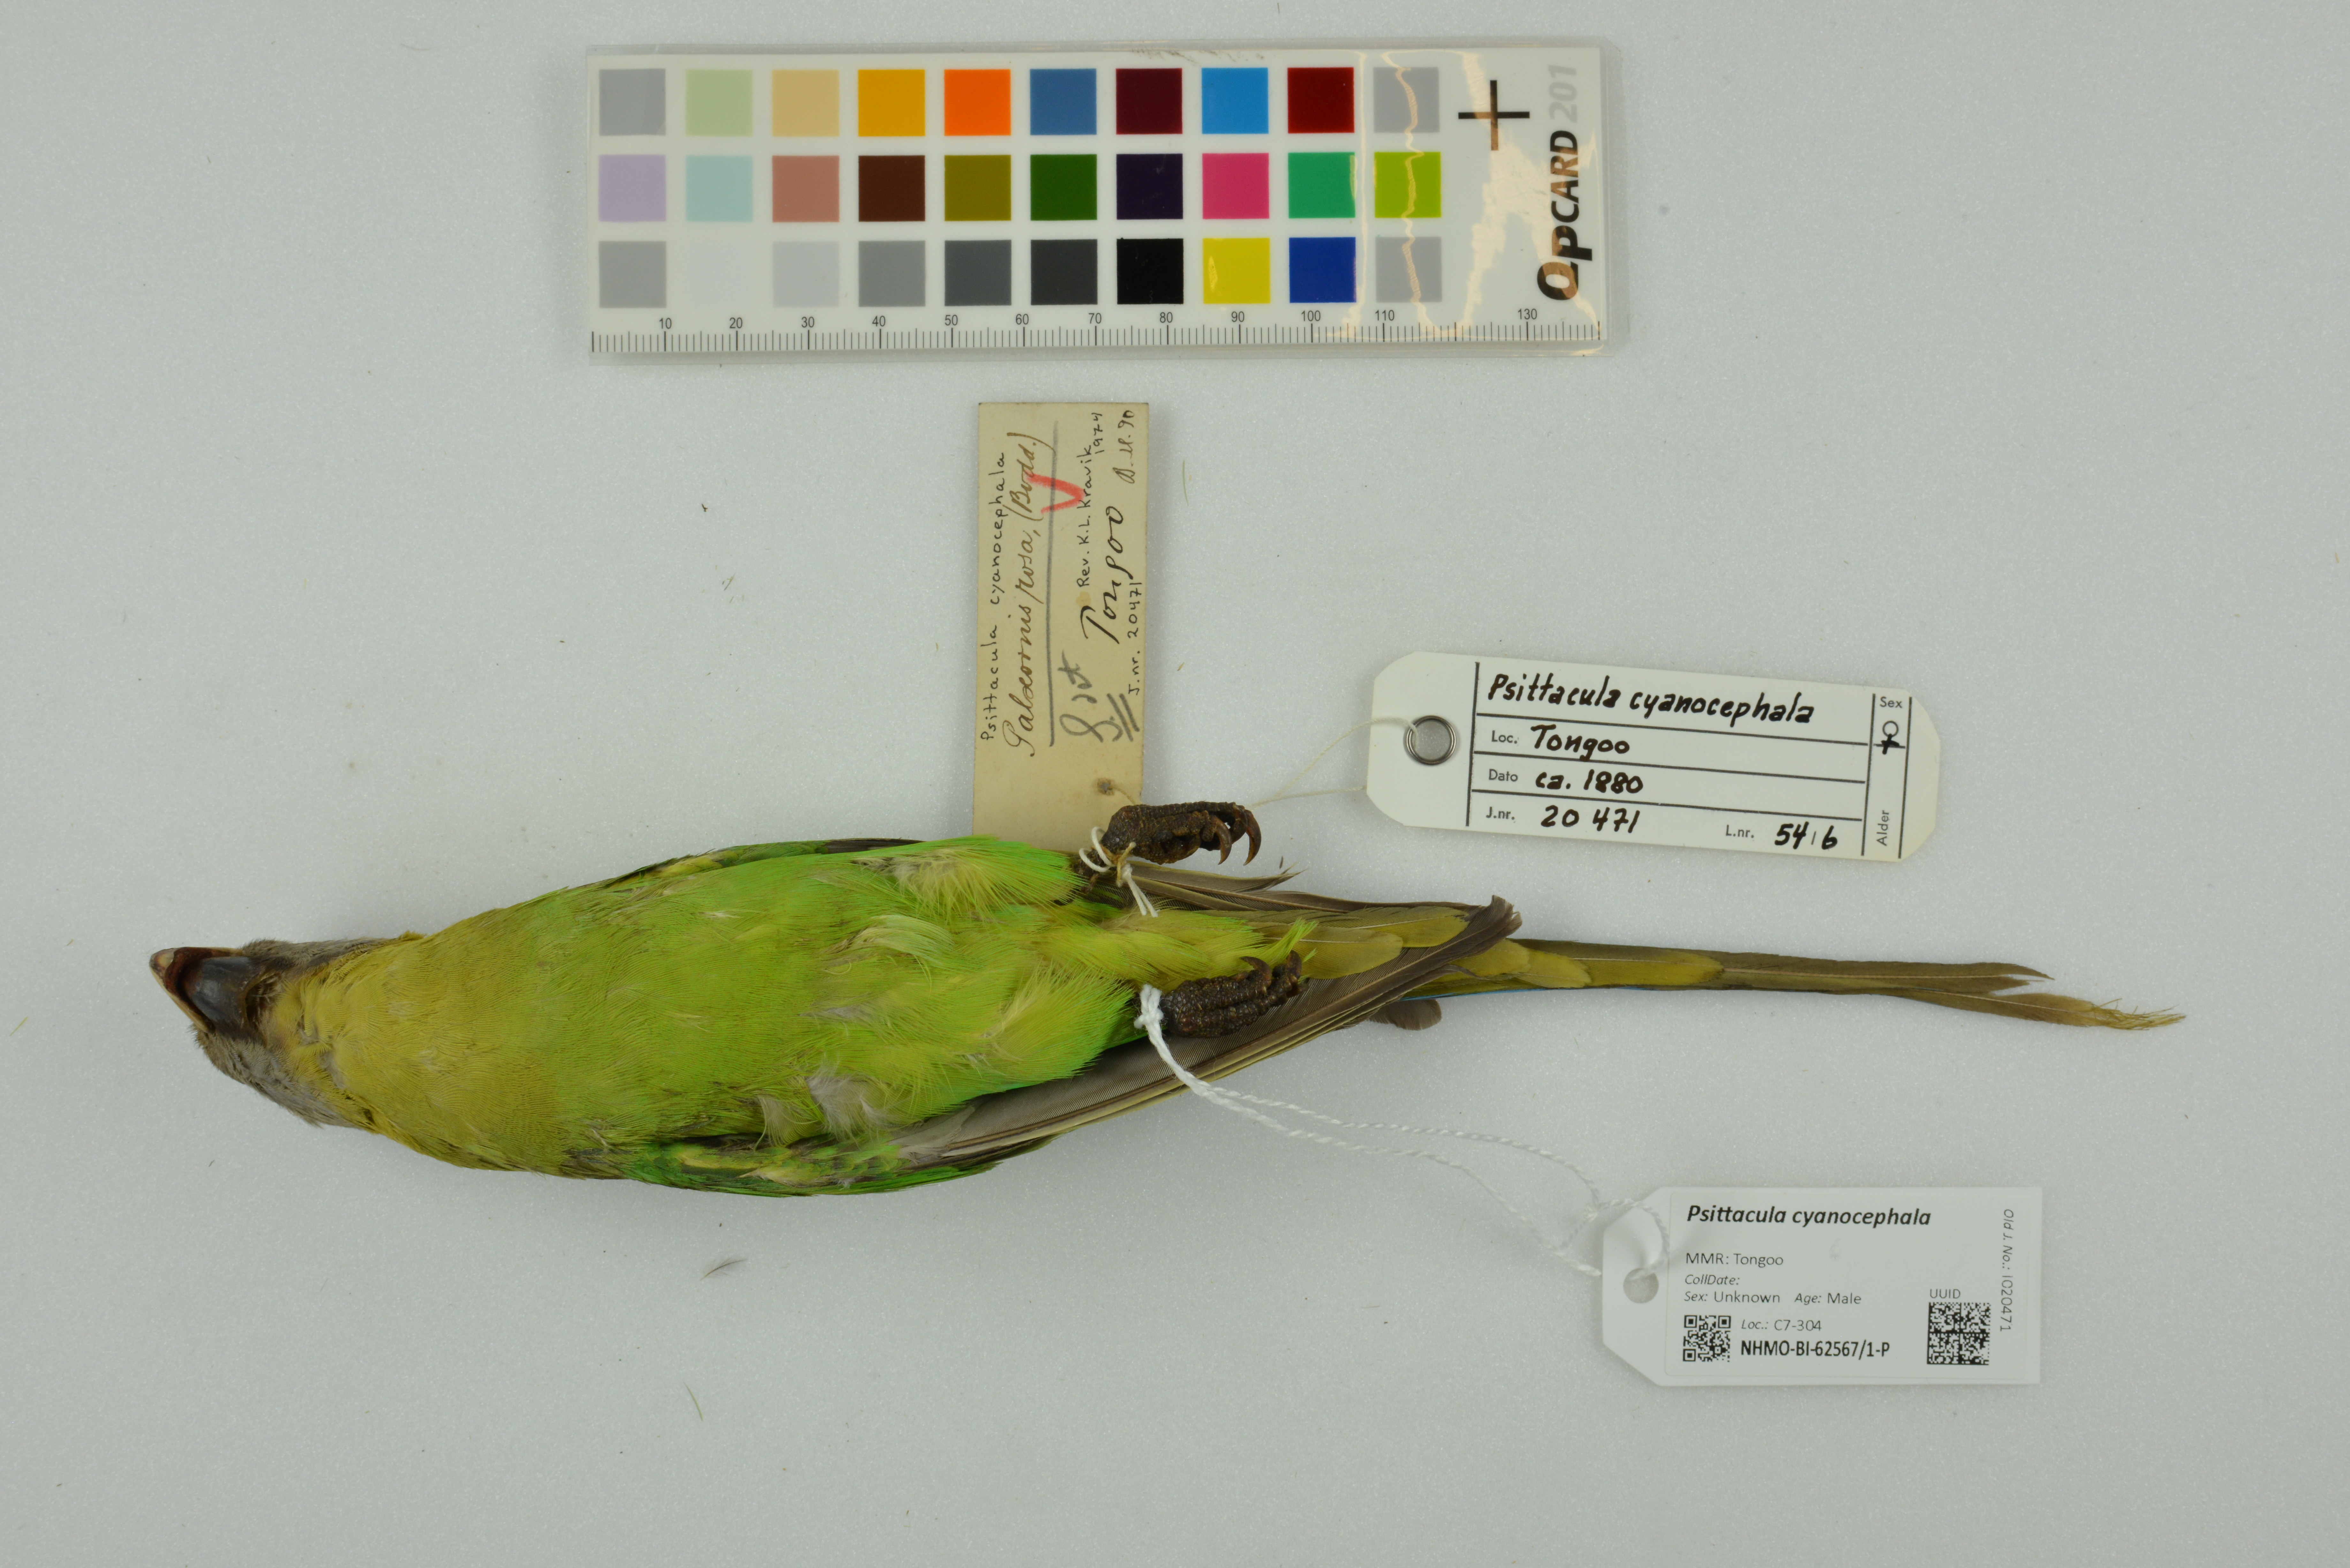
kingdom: Animalia
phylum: Chordata
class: Aves
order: Psittaciformes
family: Psittacidae
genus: Psittacula
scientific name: Psittacula cyanocephala
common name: Plum-headed parakeet
